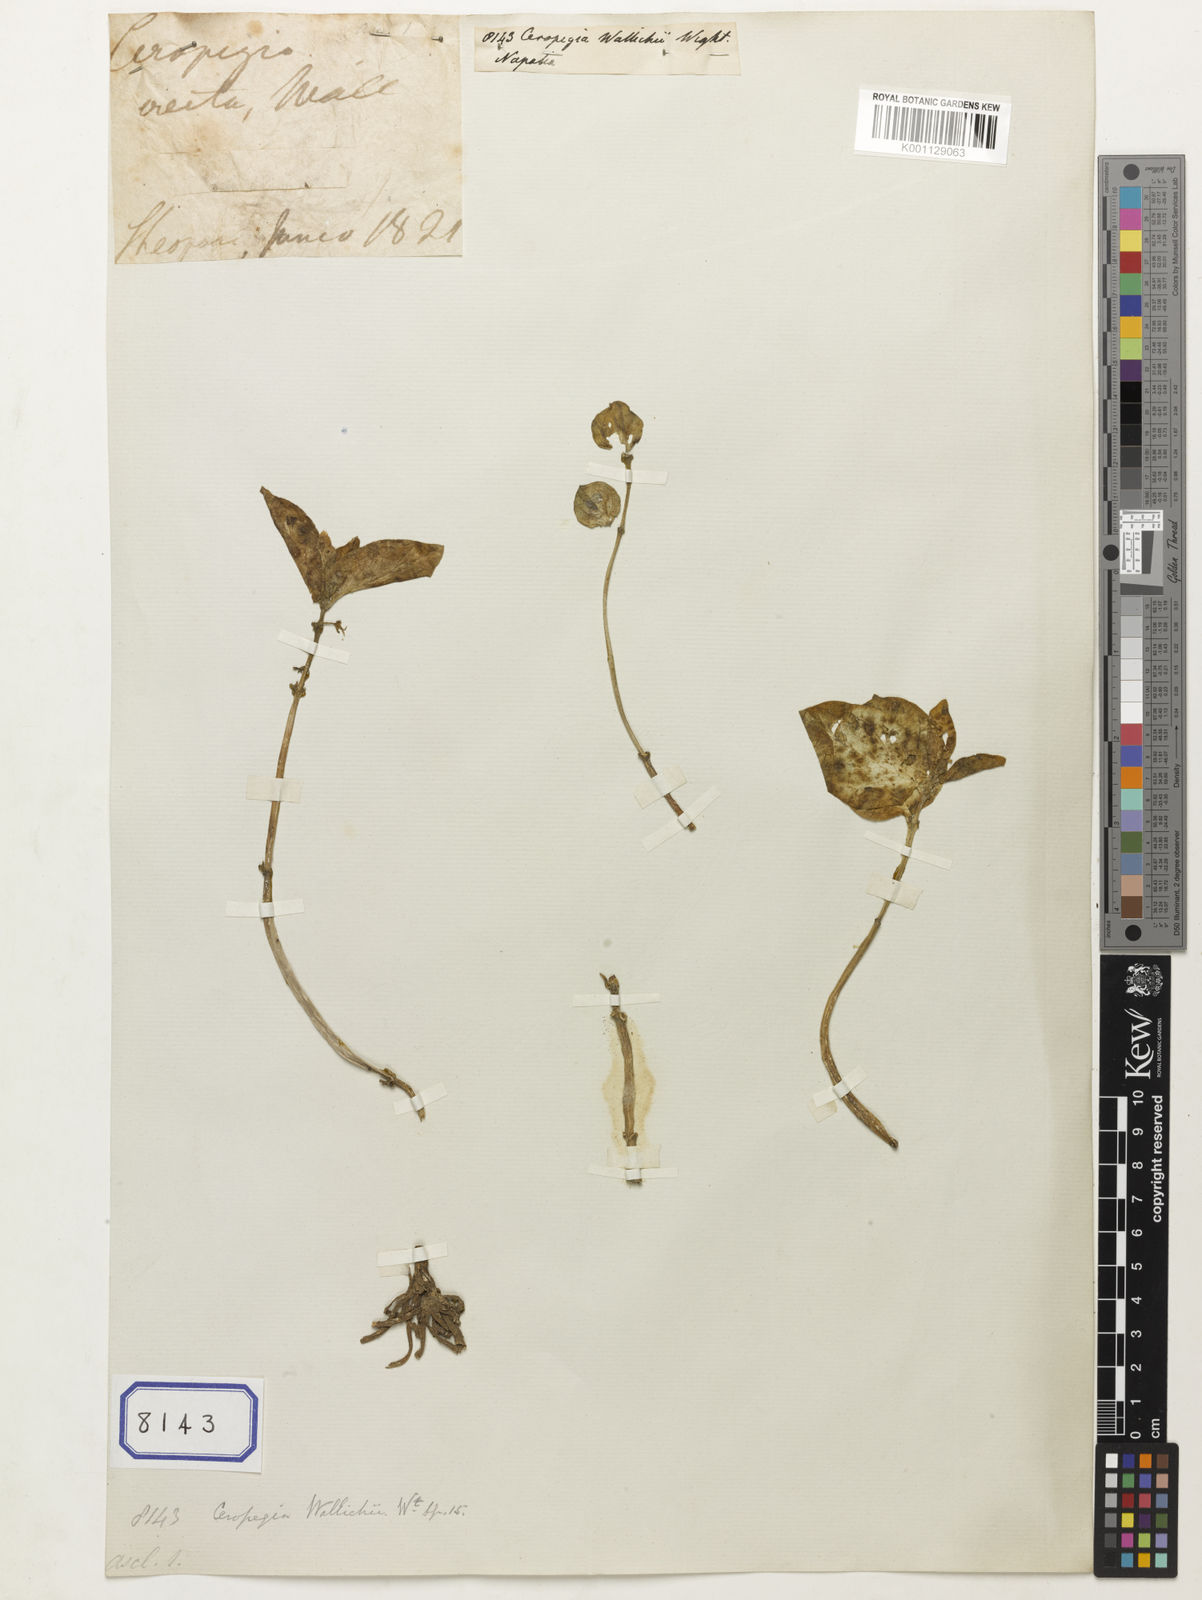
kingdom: Plantae
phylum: Tracheophyta
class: Magnoliopsida
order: Gentianales
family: Apocynaceae
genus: Ceropegia
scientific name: Ceropegia wallichii
